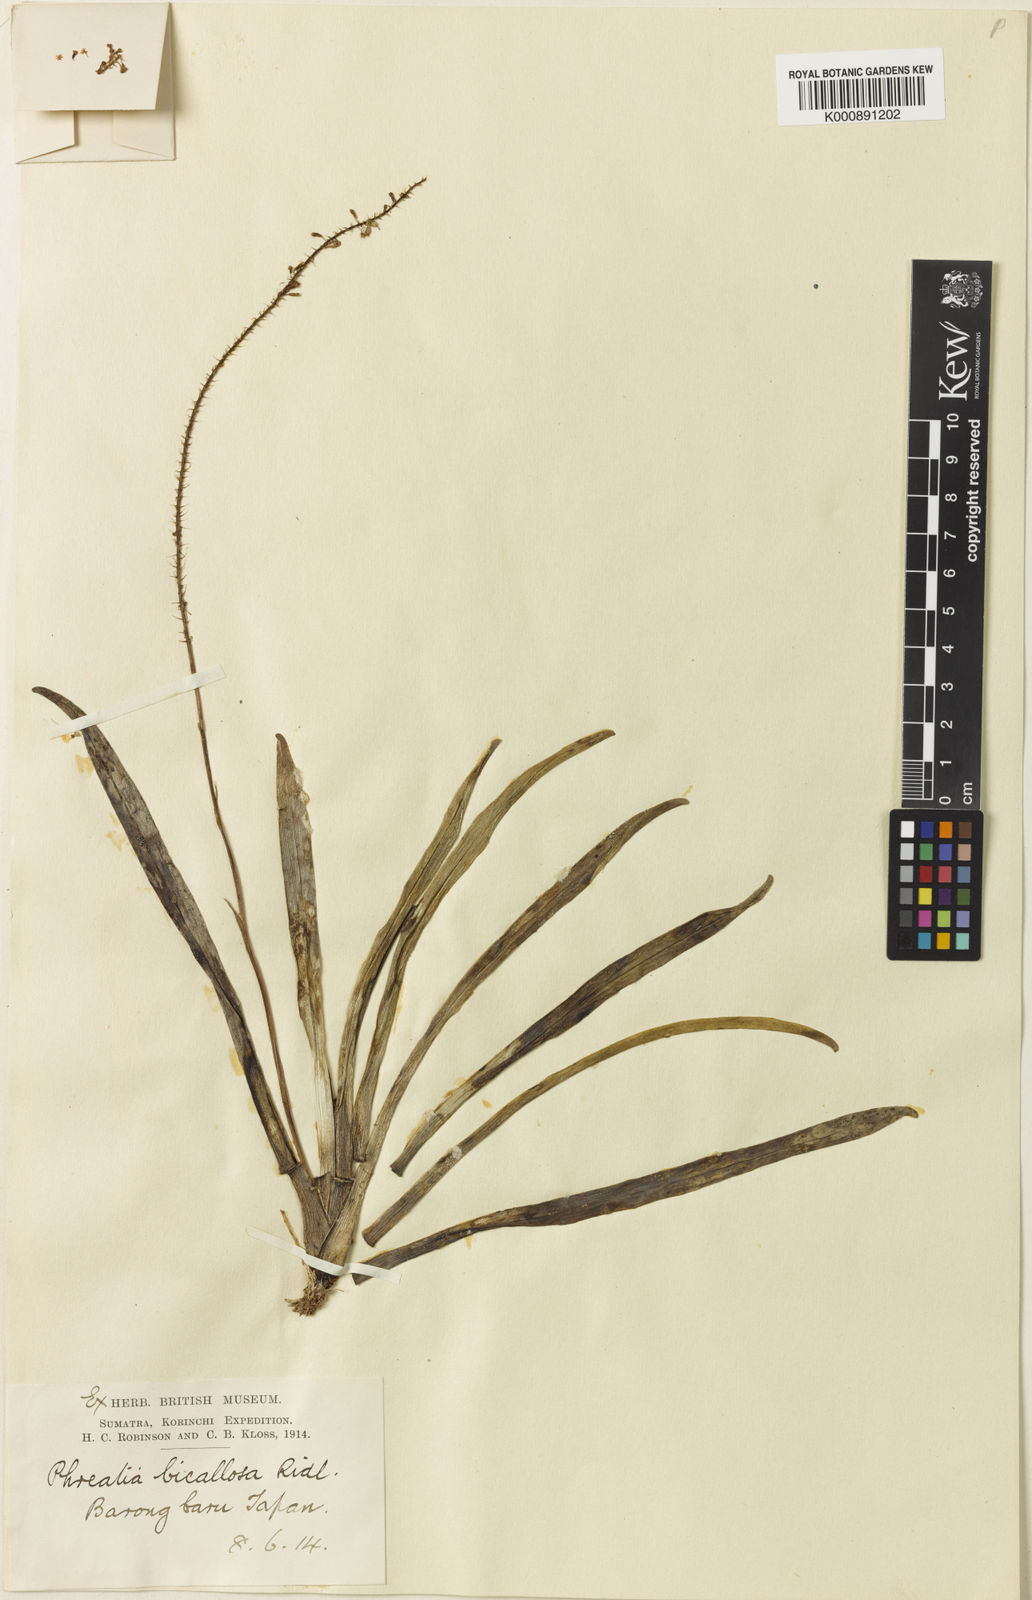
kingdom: Plantae
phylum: Tracheophyta
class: Liliopsida
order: Asparagales
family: Orchidaceae
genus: Phreatia
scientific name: Phreatia bicallosa
